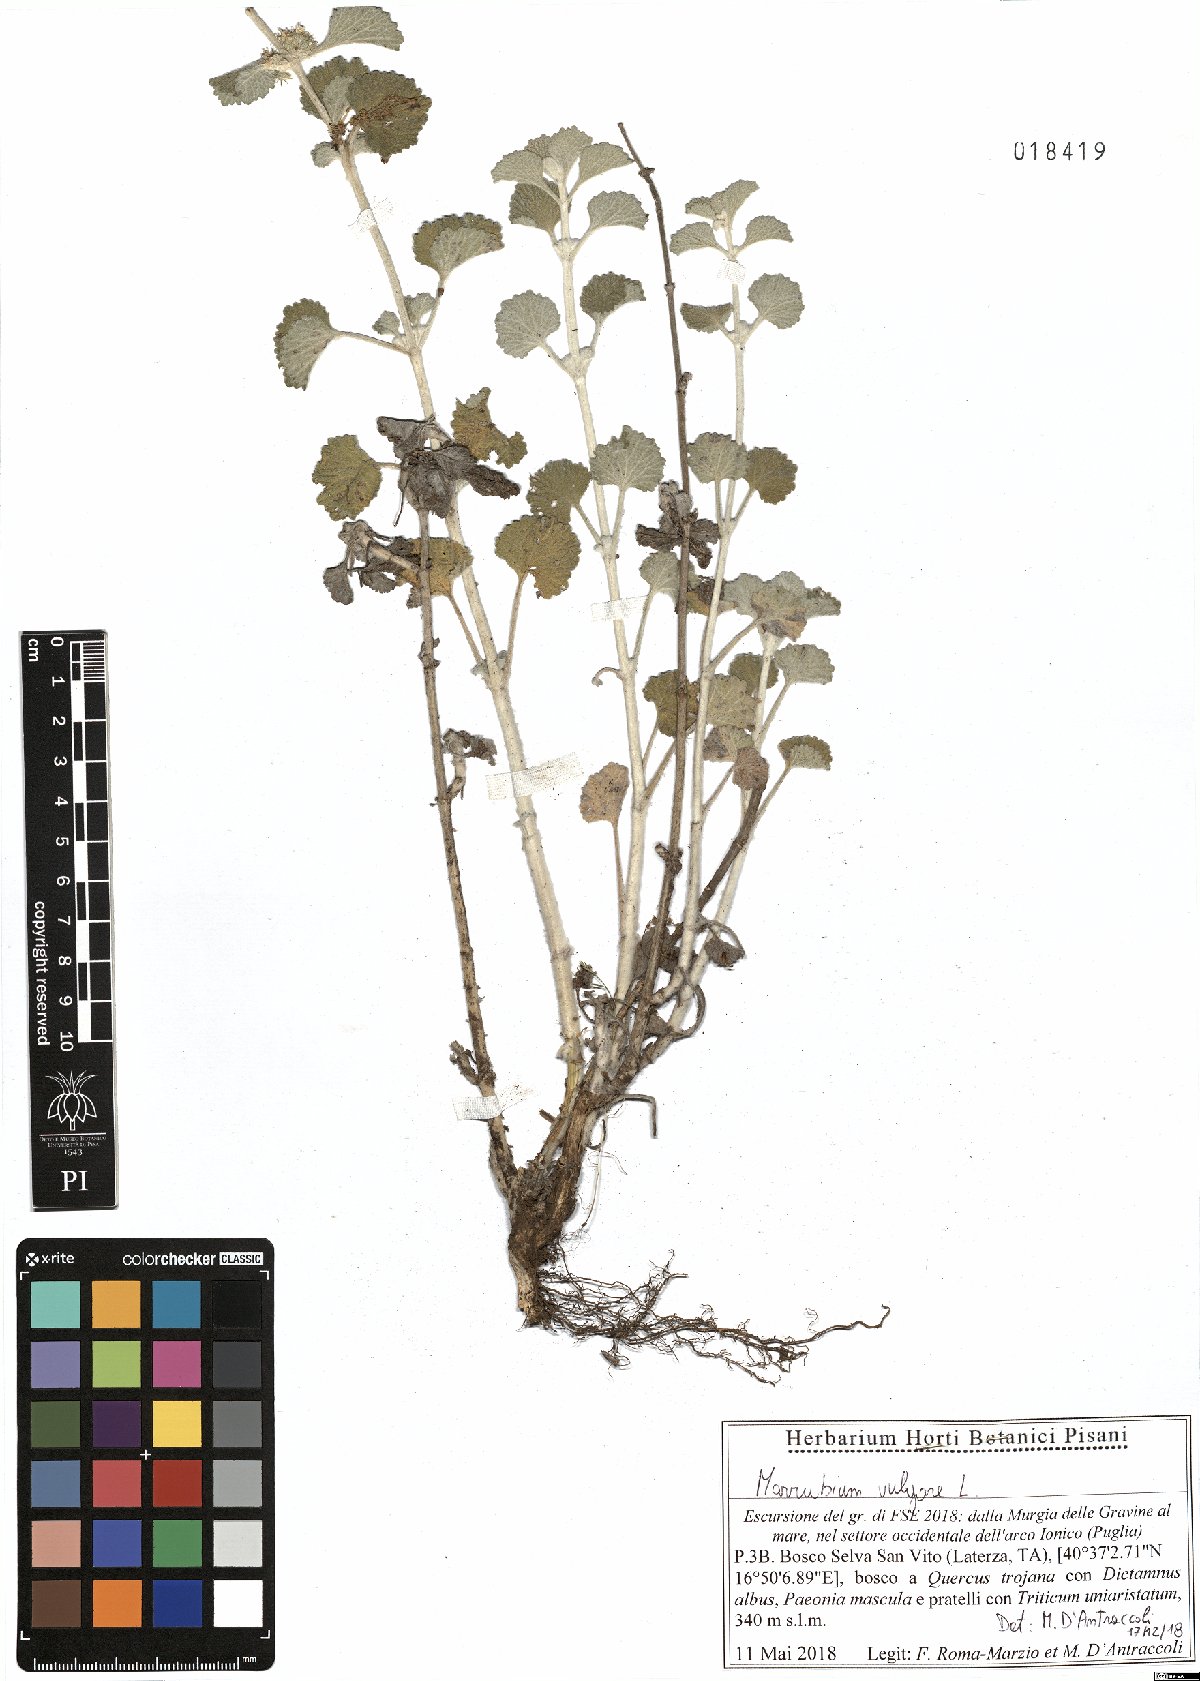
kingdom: Plantae
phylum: Tracheophyta
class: Magnoliopsida
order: Lamiales
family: Lamiaceae
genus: Marrubium
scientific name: Marrubium vulgare
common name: Horehound
